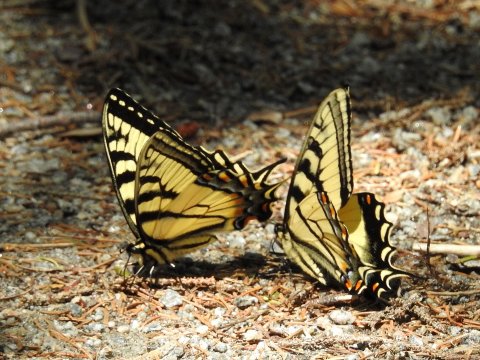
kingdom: Animalia
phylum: Arthropoda
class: Insecta
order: Lepidoptera
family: Papilionidae
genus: Pterourus
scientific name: Pterourus canadensis
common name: Canadian Tiger Swallowtail
